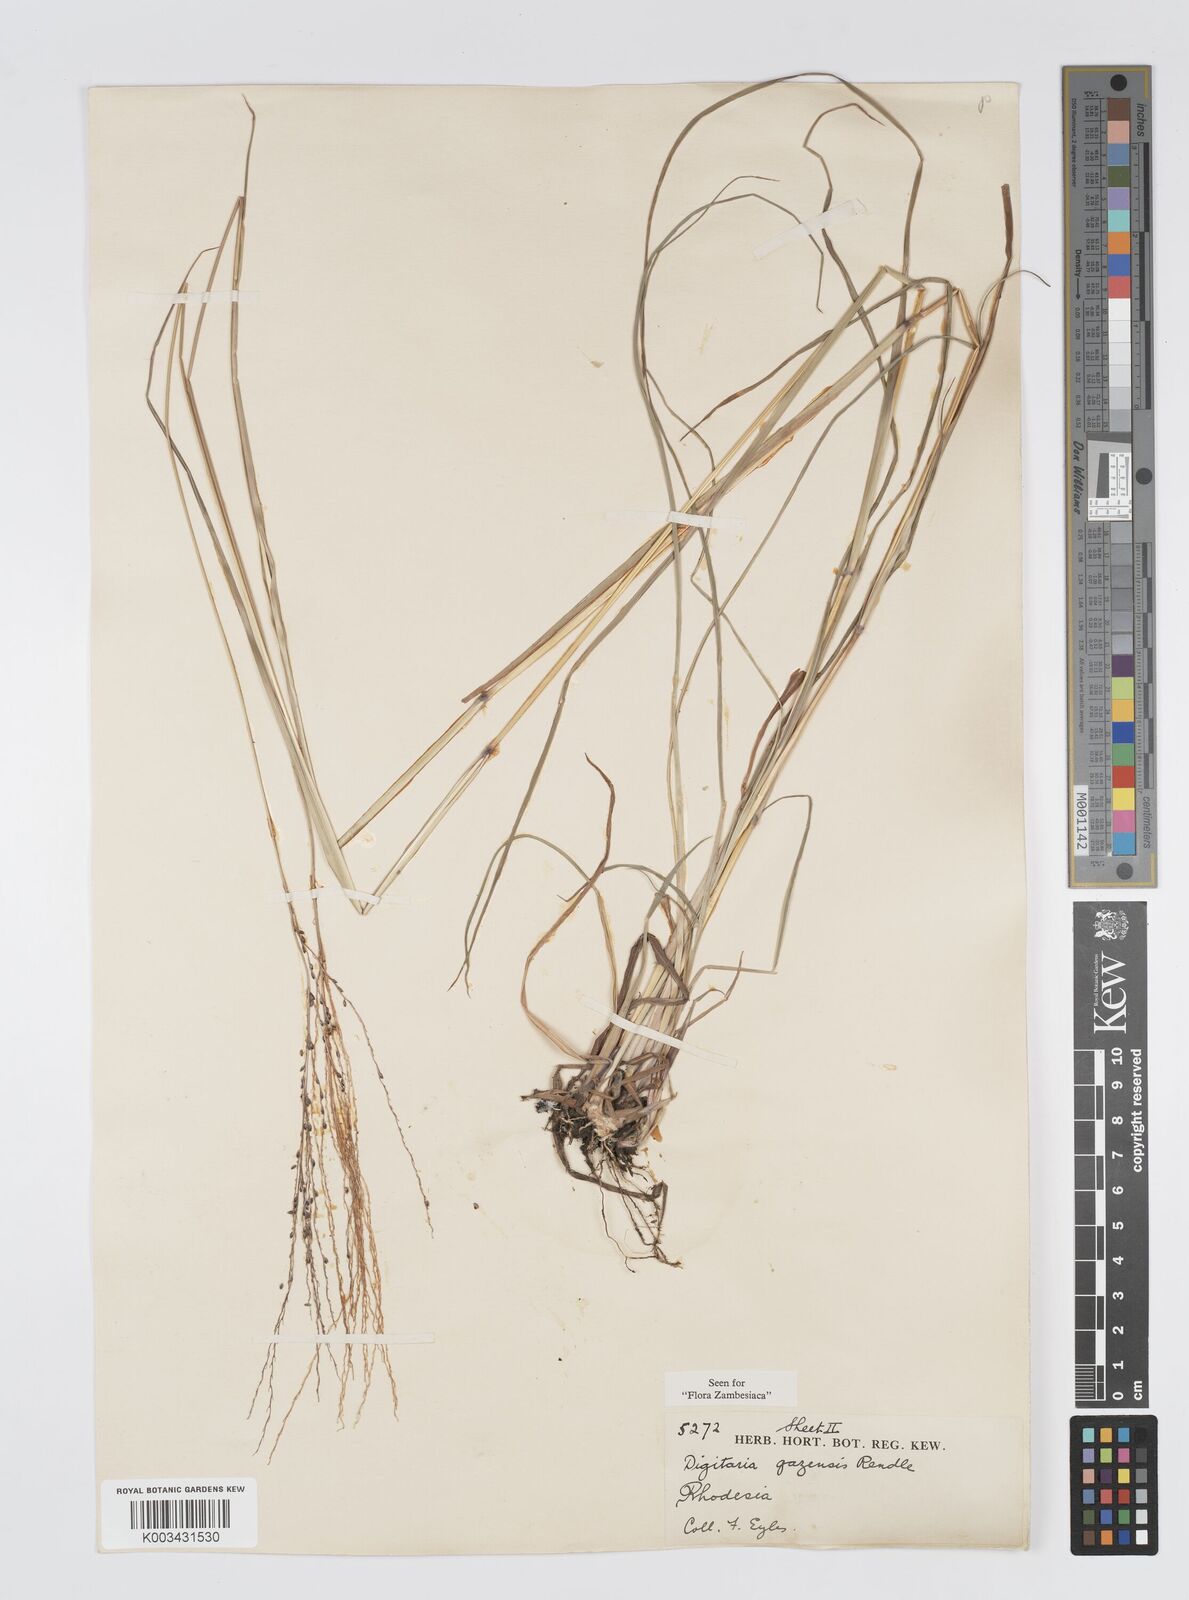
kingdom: Plantae
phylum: Tracheophyta
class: Liliopsida
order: Poales
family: Poaceae
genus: Digitaria
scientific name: Digitaria gazensis
